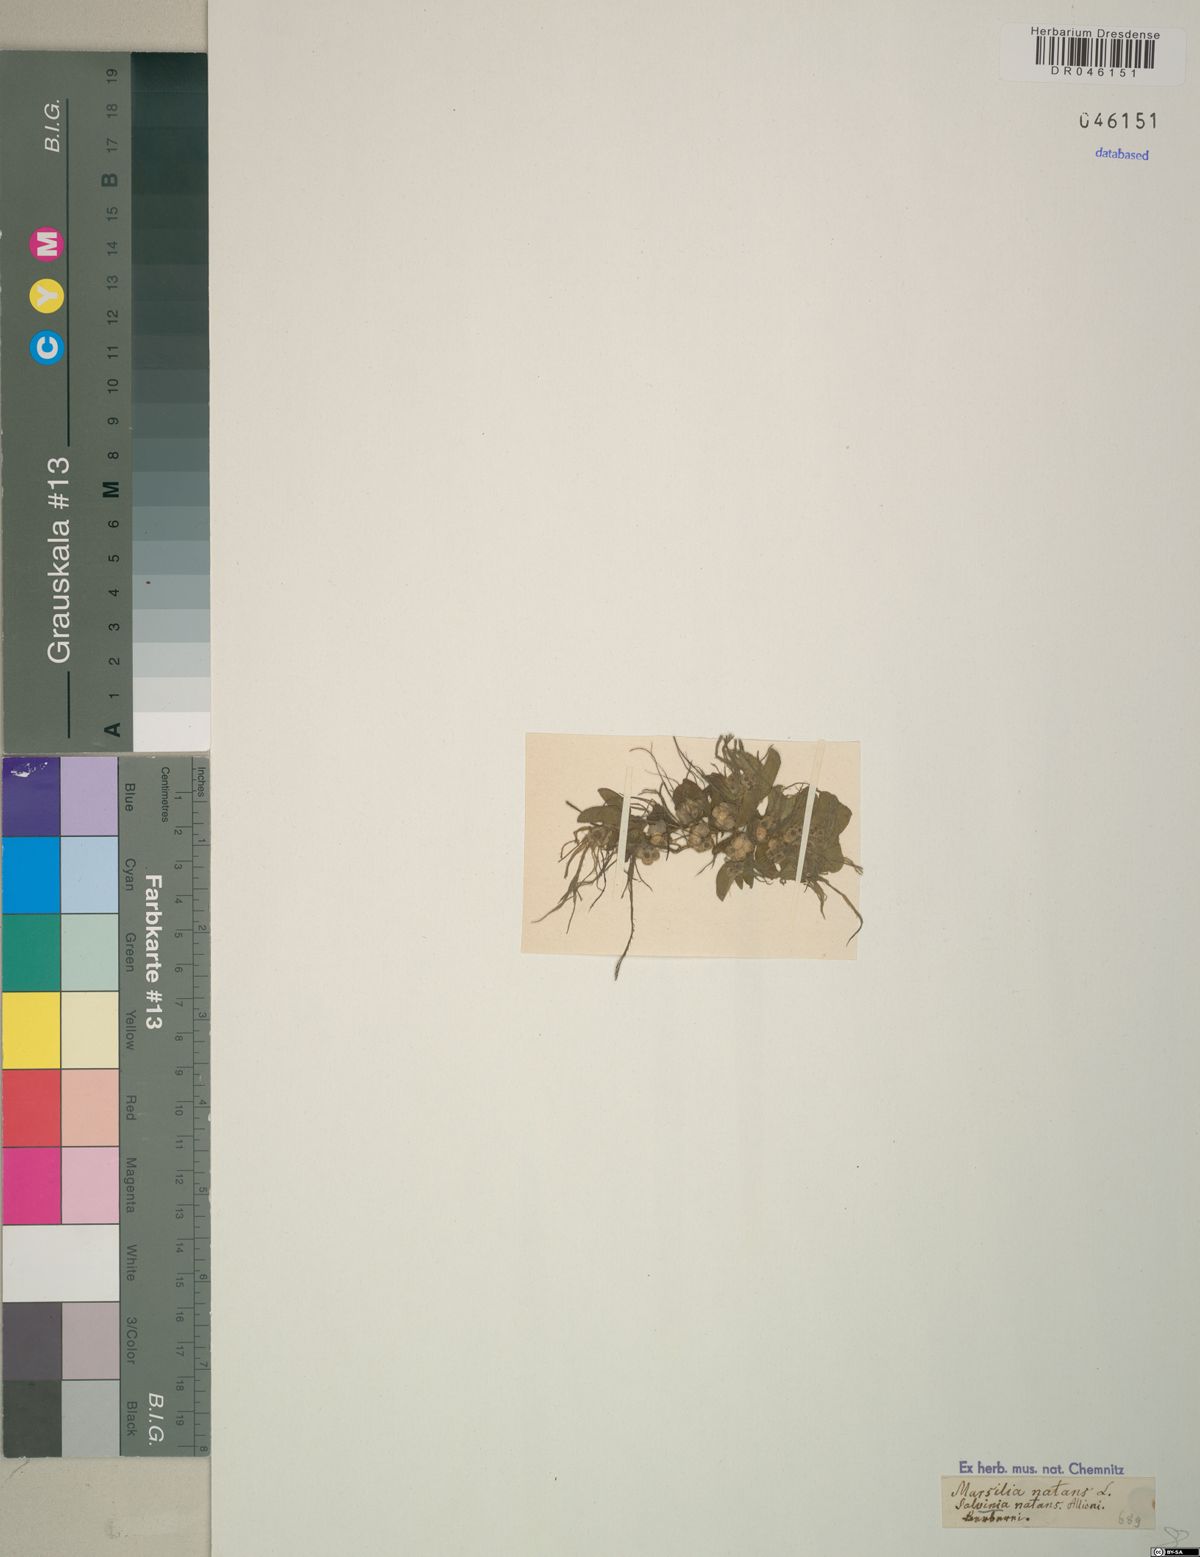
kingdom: Plantae
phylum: Tracheophyta
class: Polypodiopsida
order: Salviniales
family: Salviniaceae
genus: Salvinia
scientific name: Salvinia natans
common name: Floating fern
